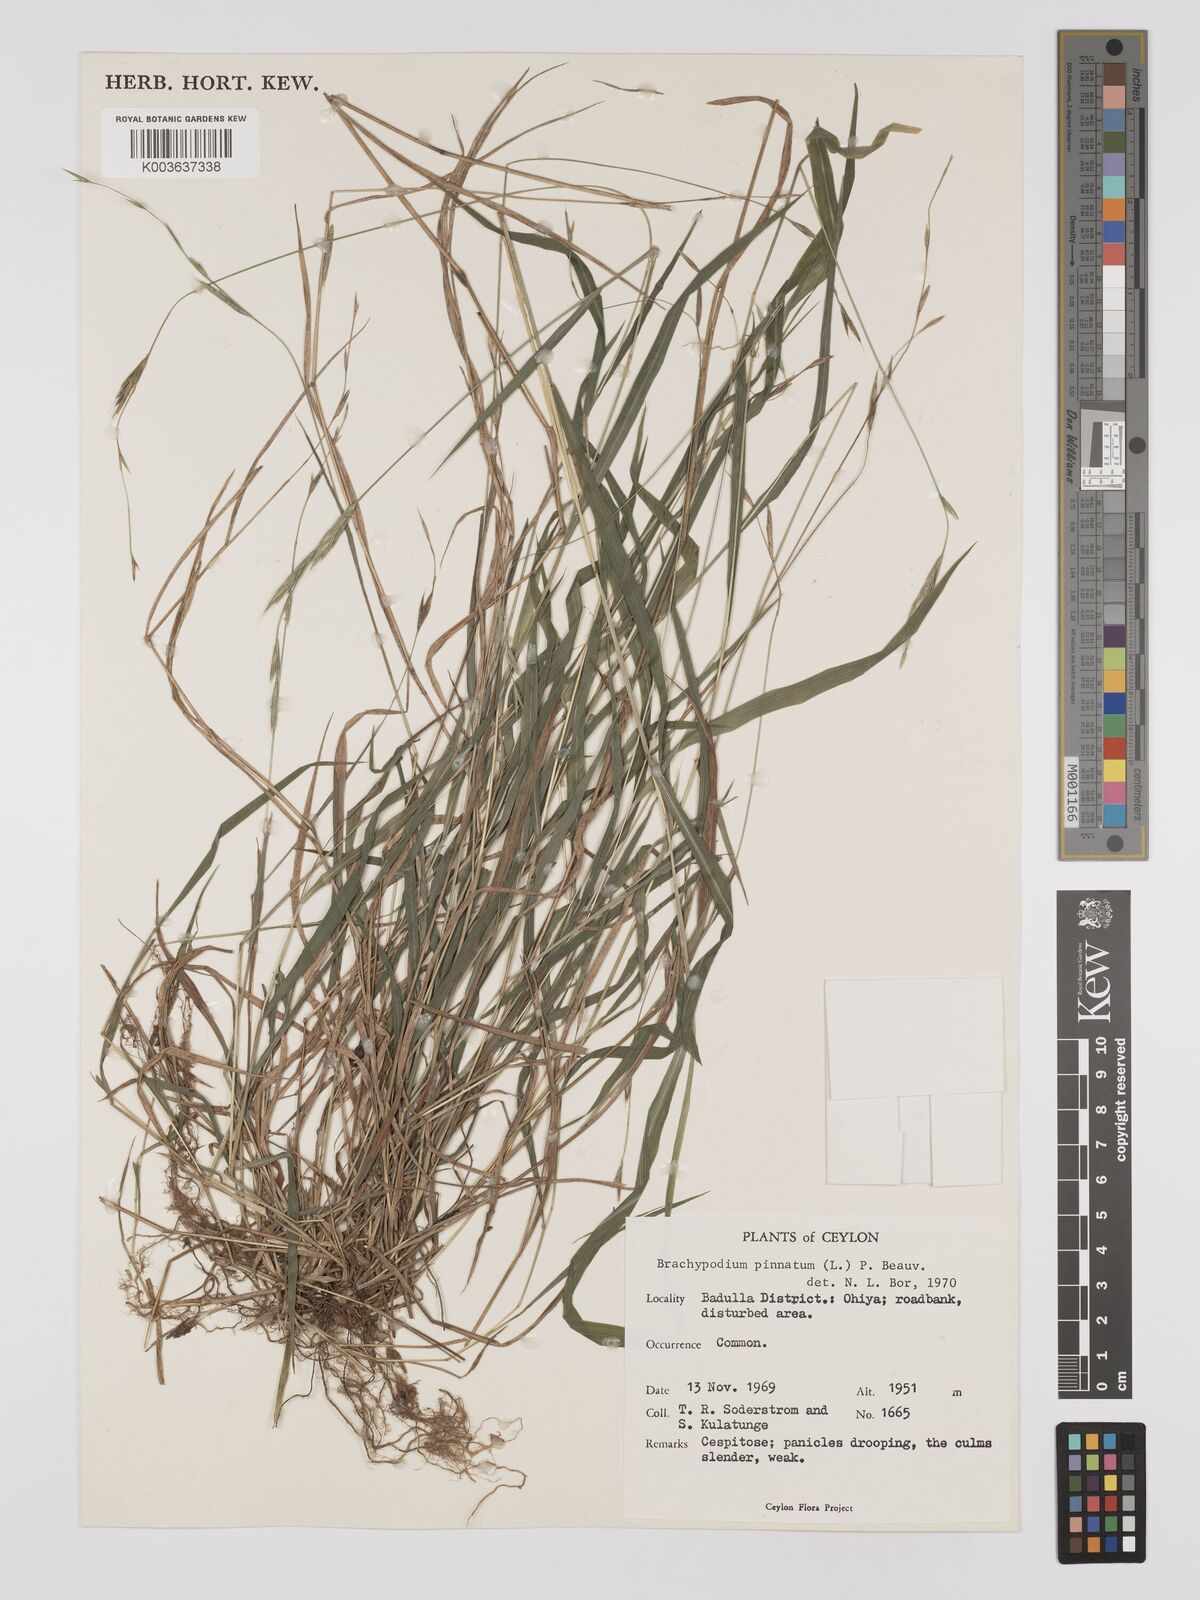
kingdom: Plantae
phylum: Tracheophyta
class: Liliopsida
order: Poales
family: Poaceae
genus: Brachypodium
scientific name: Brachypodium pinnatum
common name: Tor grass
